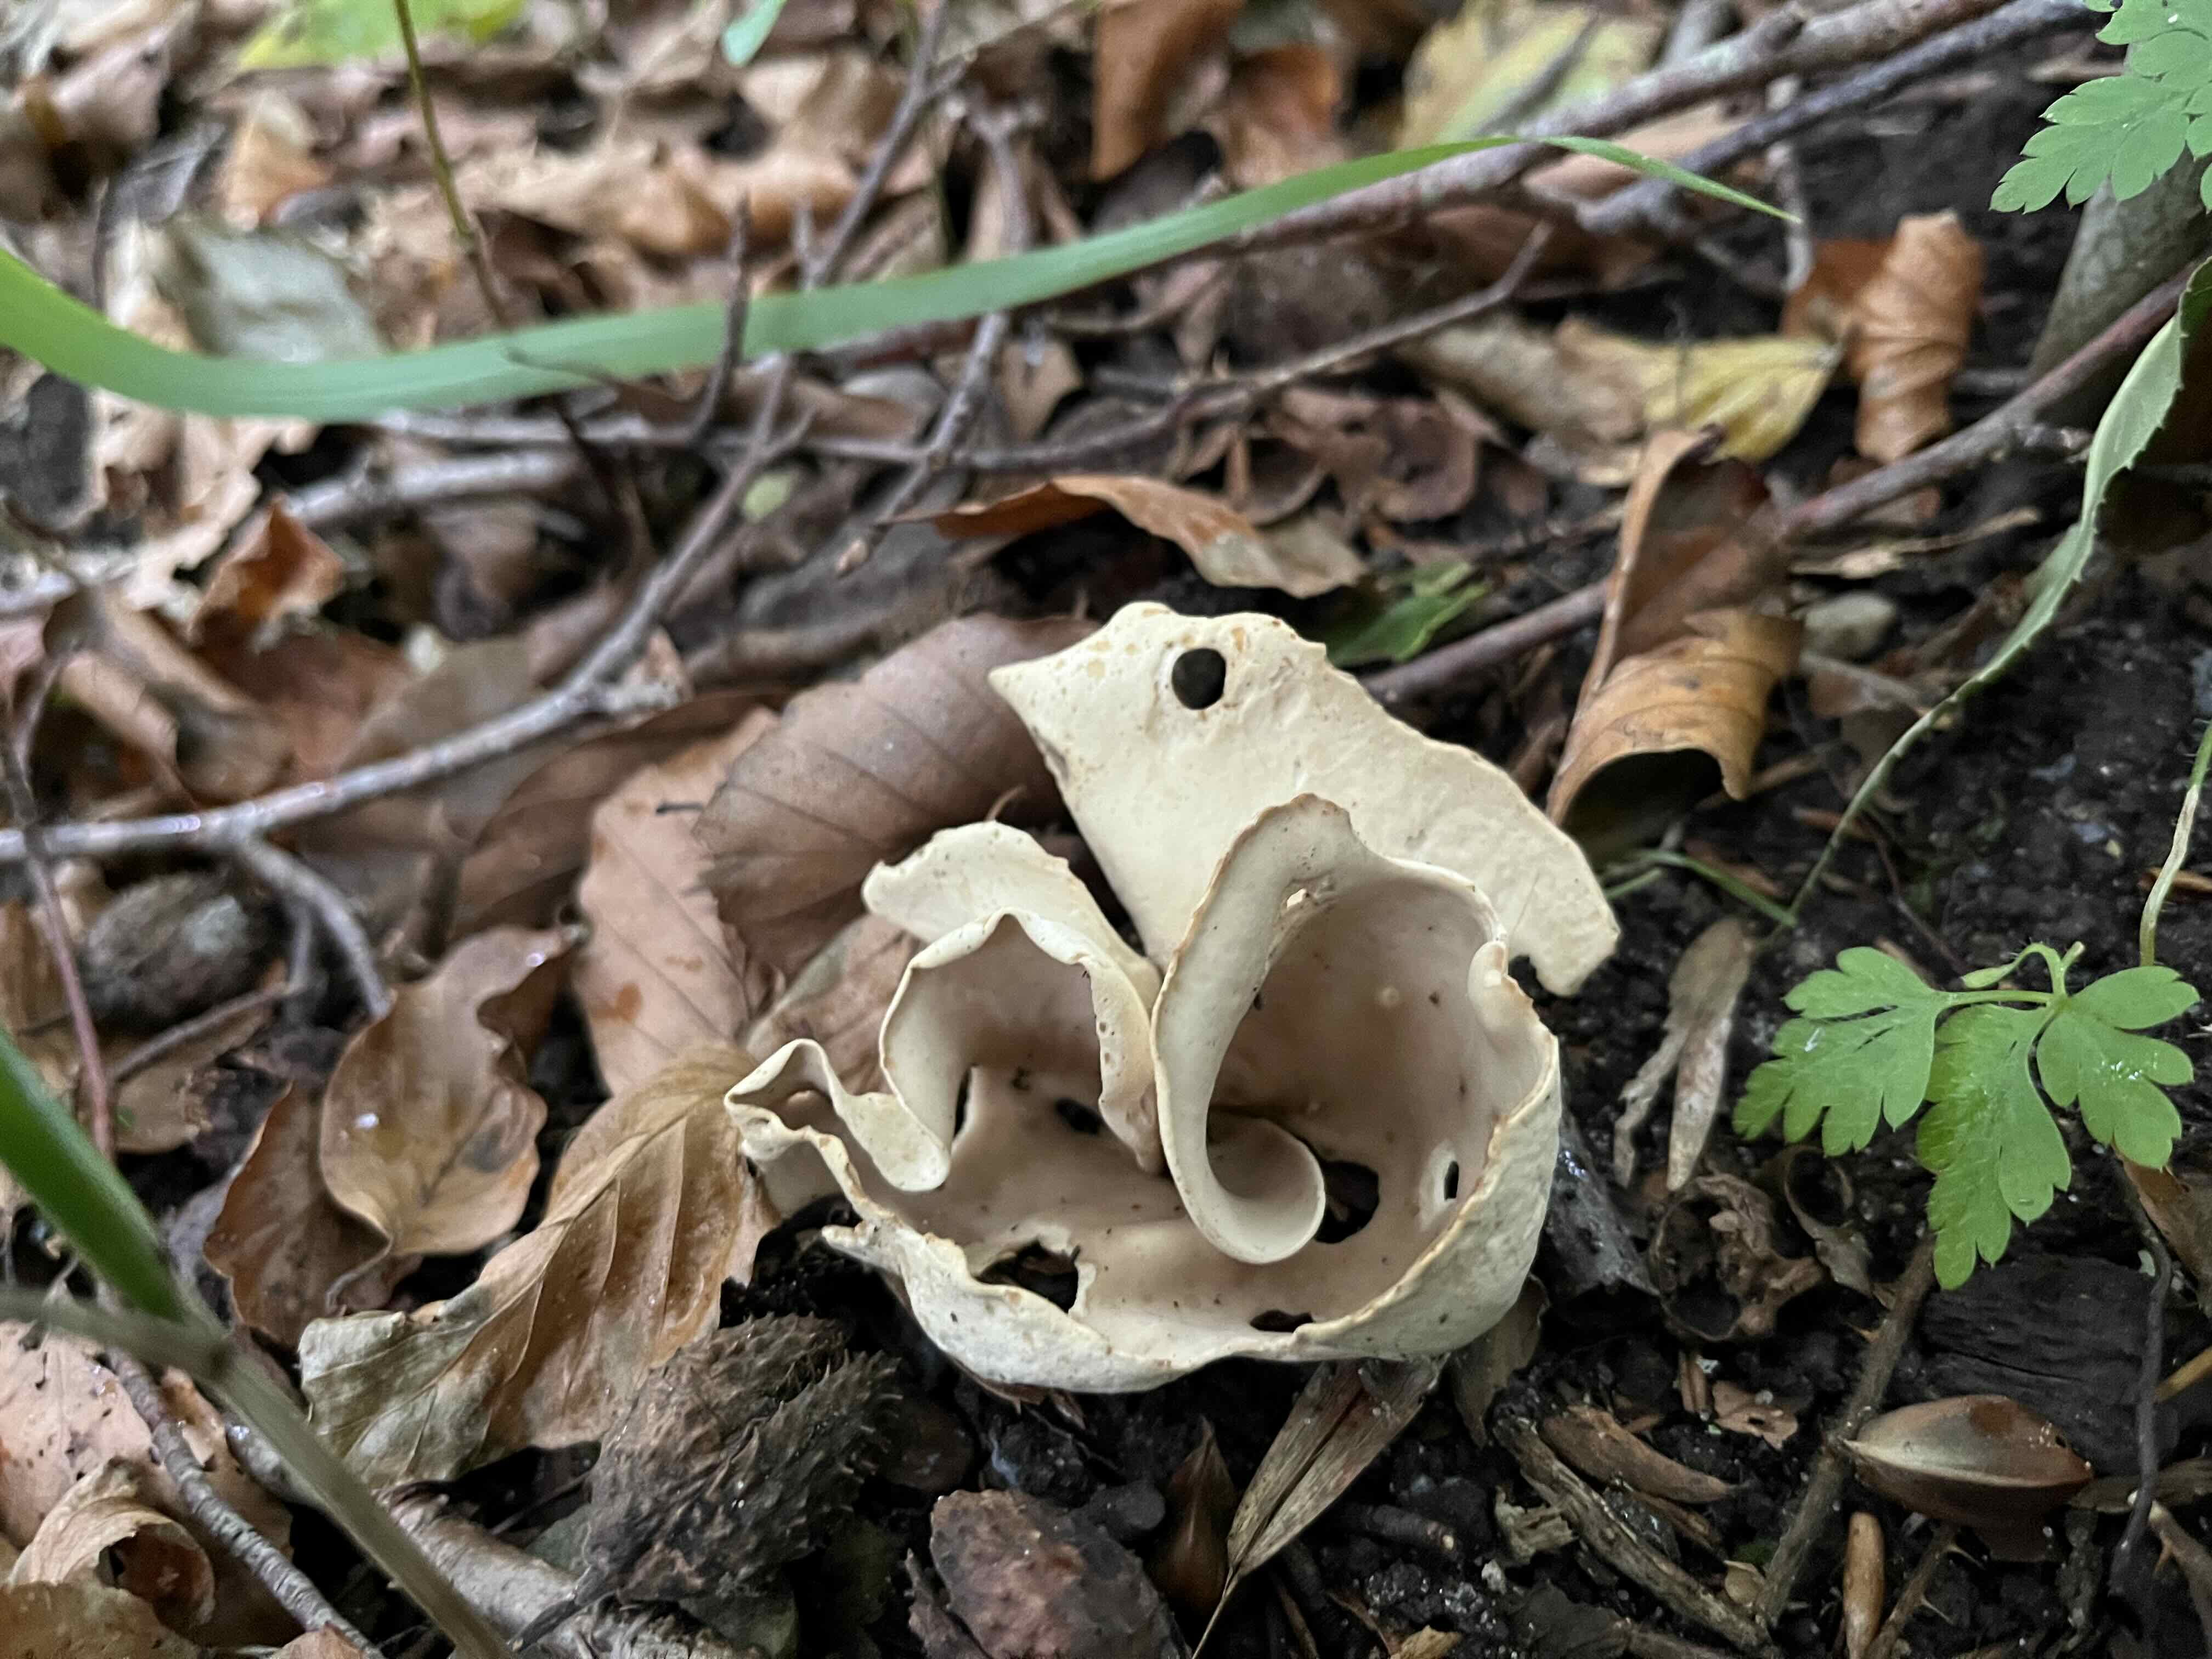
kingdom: Fungi
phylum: Ascomycota
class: Pezizomycetes
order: Pezizales
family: Otideaceae
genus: Otidea
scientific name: Otidea alutacea
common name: læder-ørebæger
